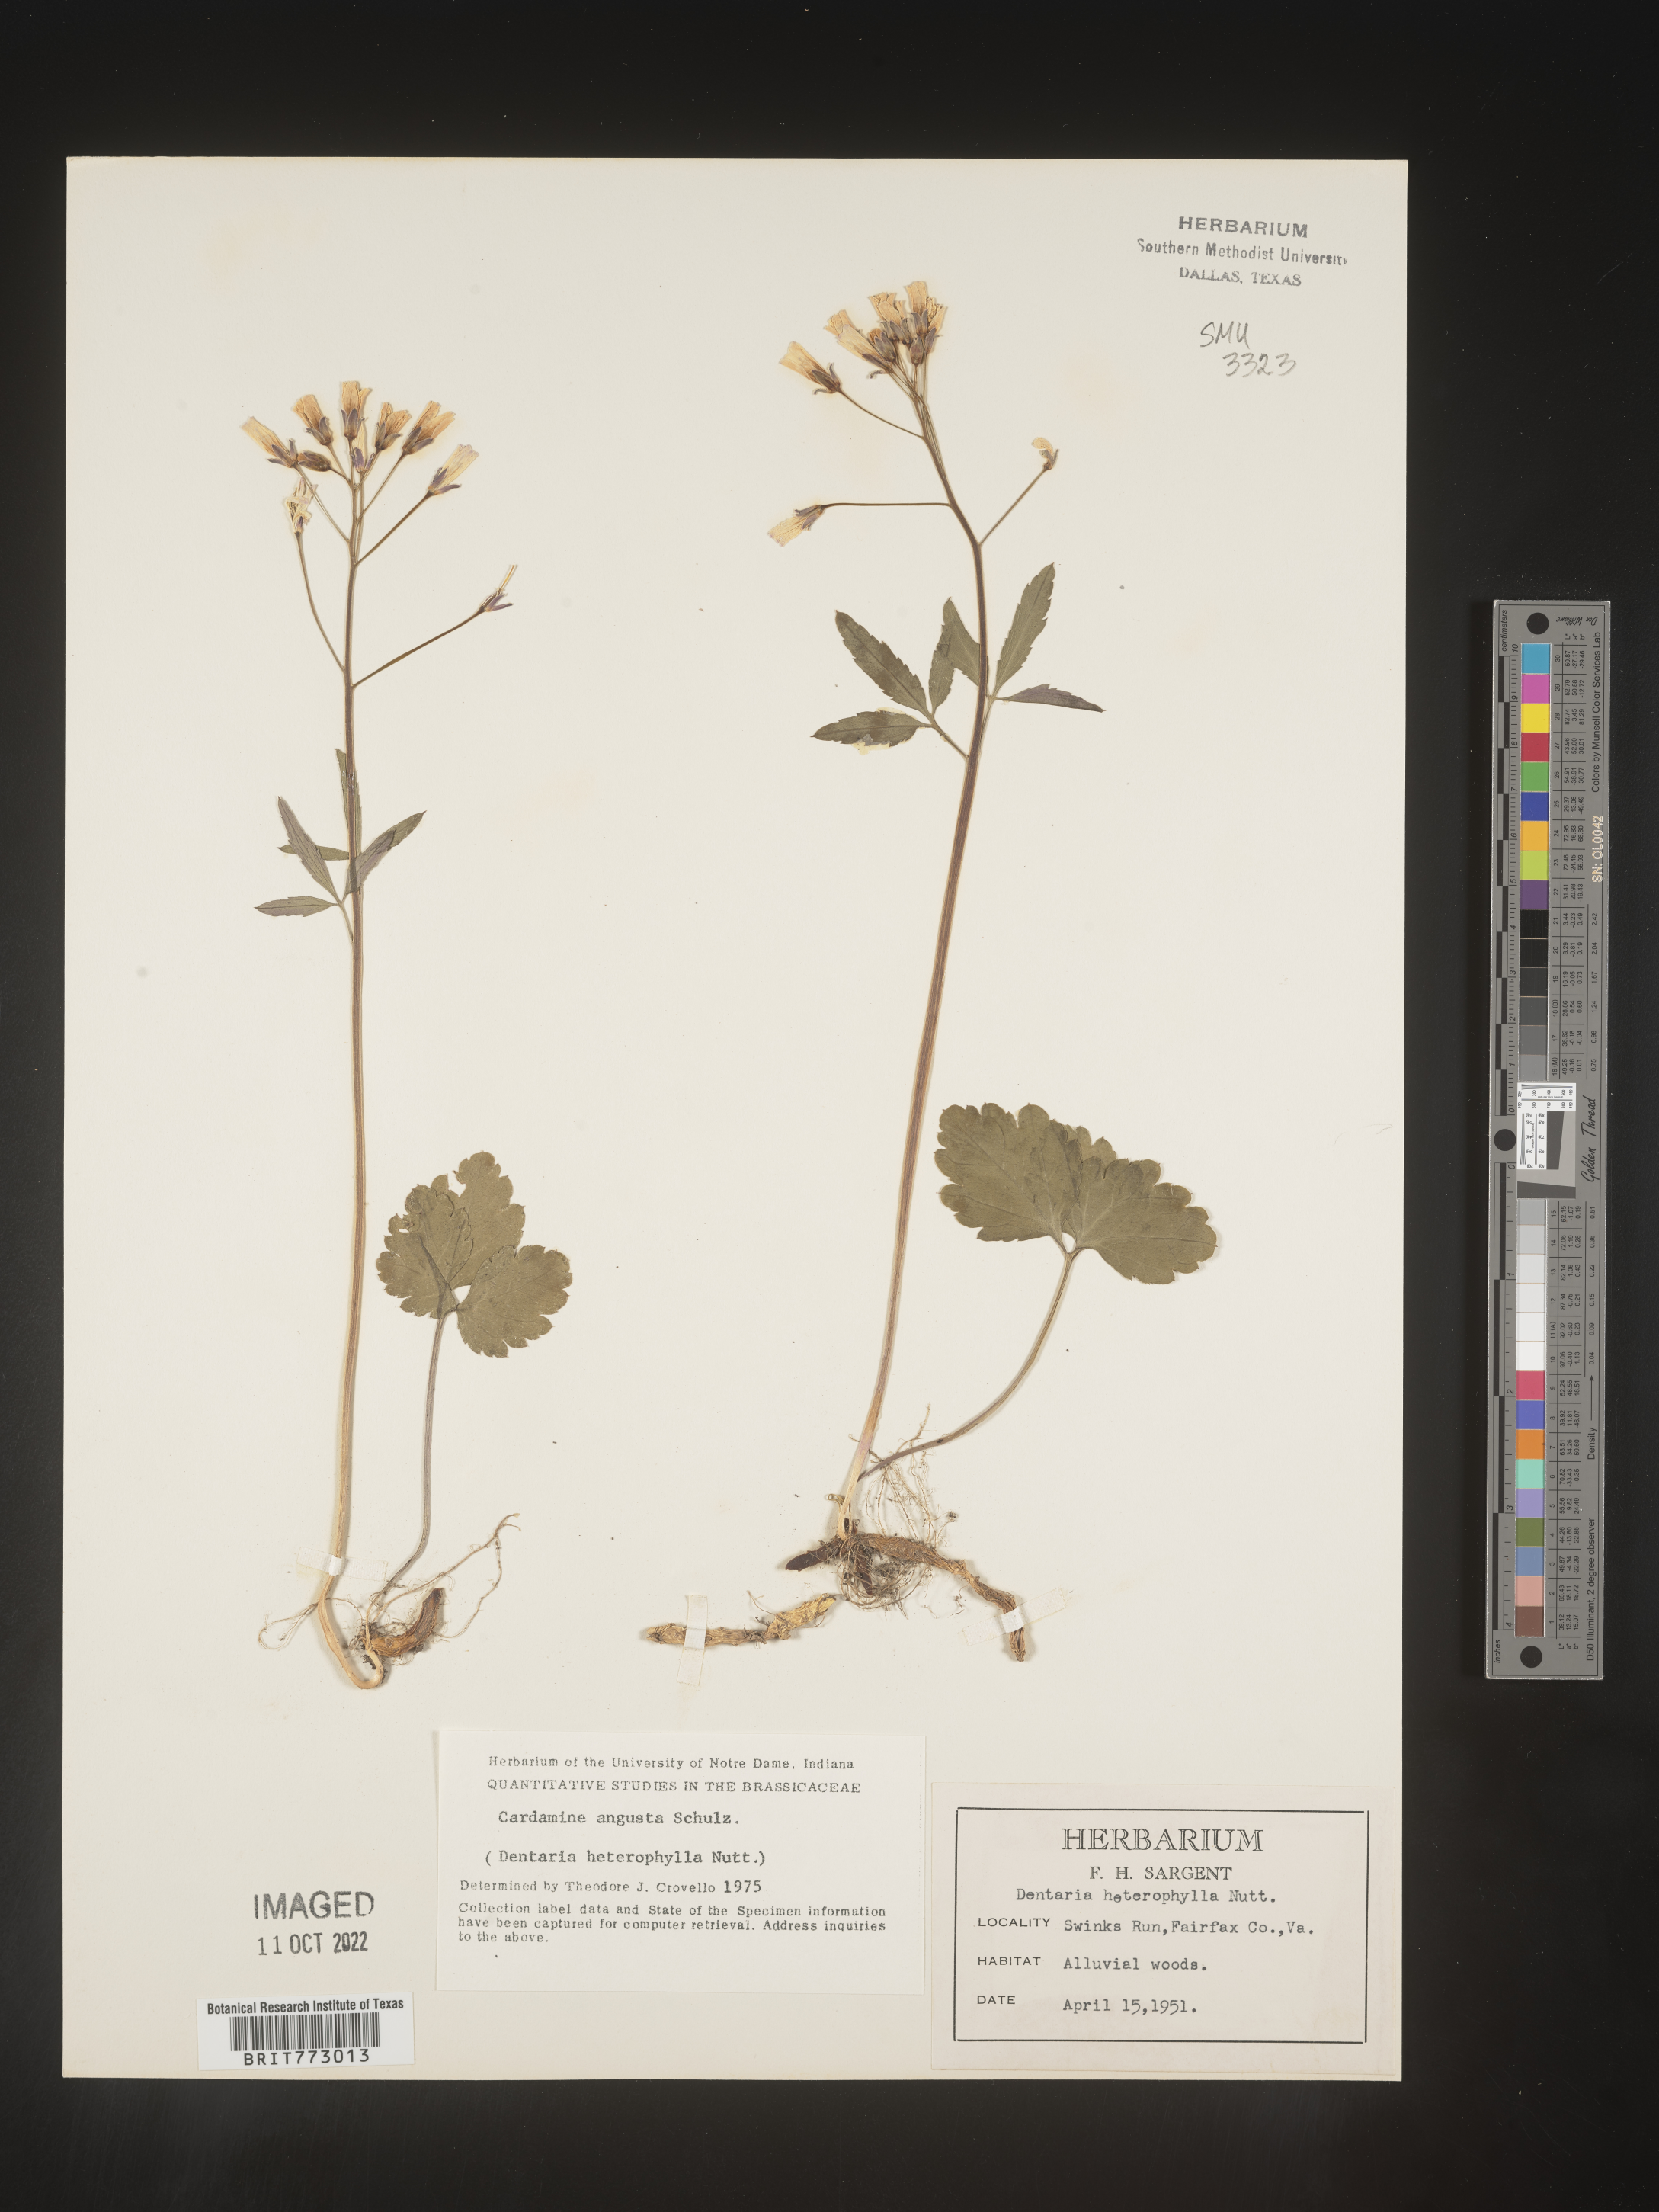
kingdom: Plantae
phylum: Tracheophyta
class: Magnoliopsida
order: Brassicales
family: Brassicaceae
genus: Cardamine
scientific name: Cardamine angustata
